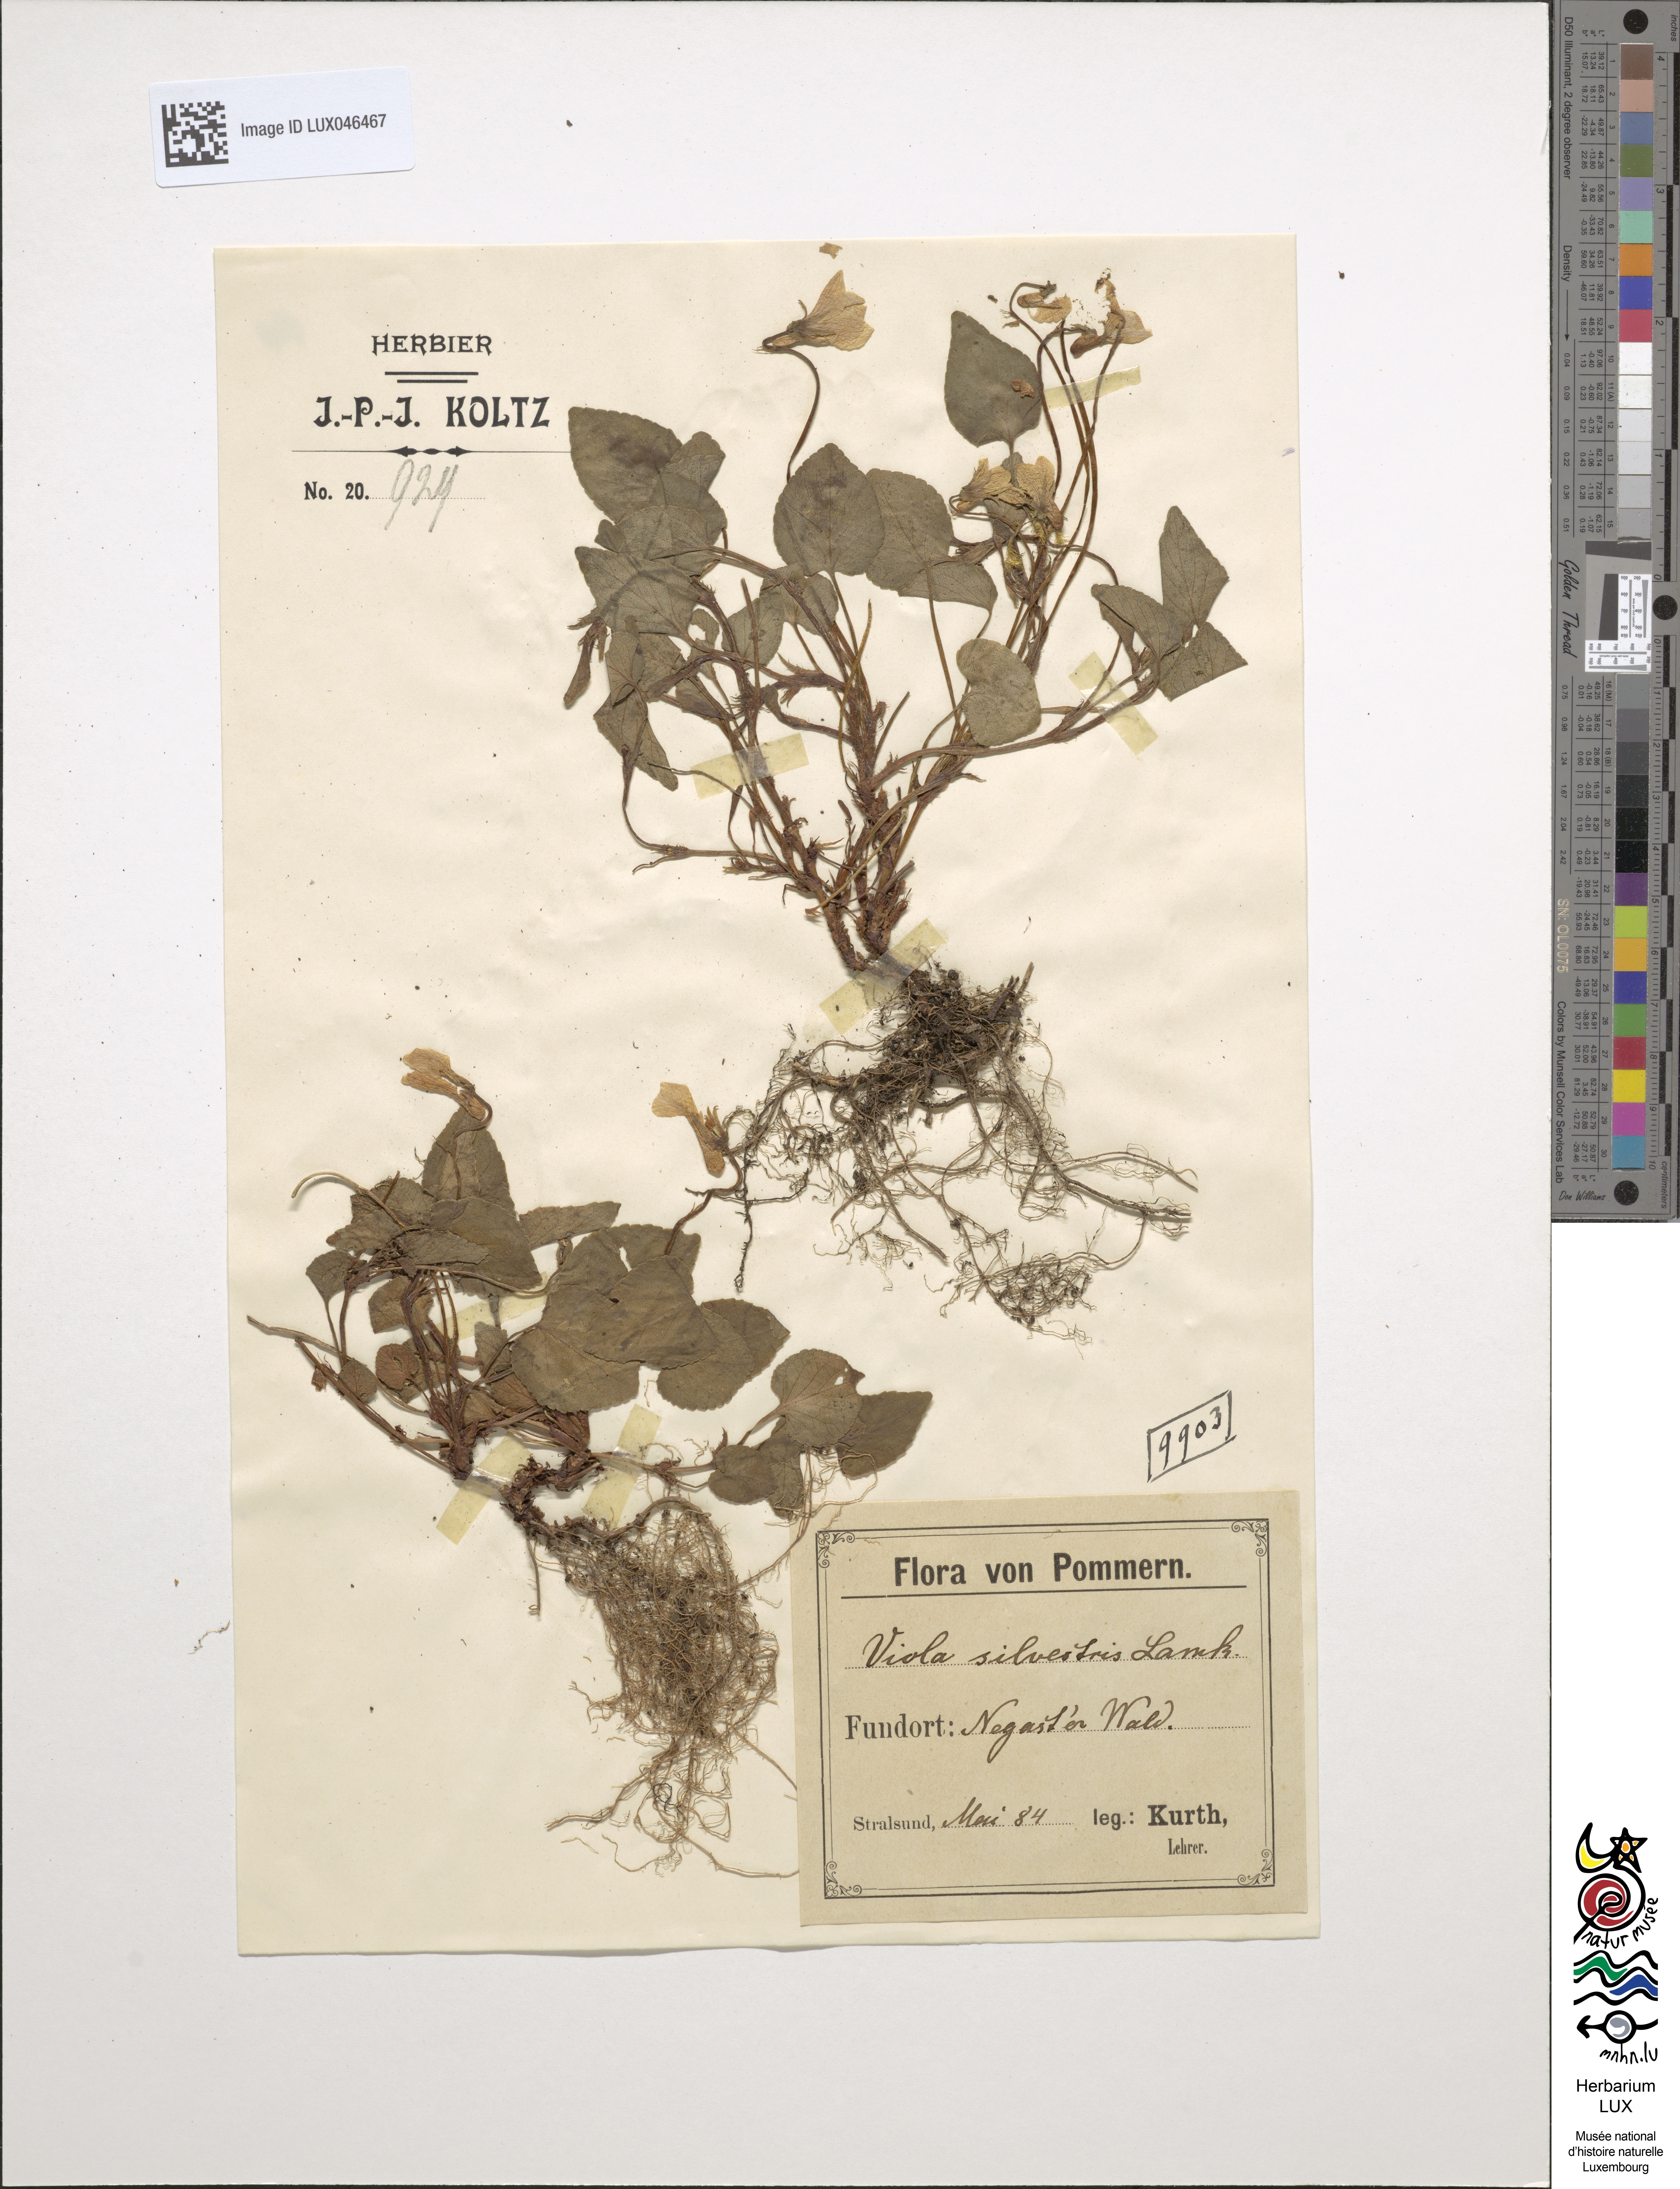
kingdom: Plantae
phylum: Tracheophyta
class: Magnoliopsida
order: Malpighiales
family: Violaceae
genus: Viola
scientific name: Viola reichenbachiana
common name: Early dog-violet
